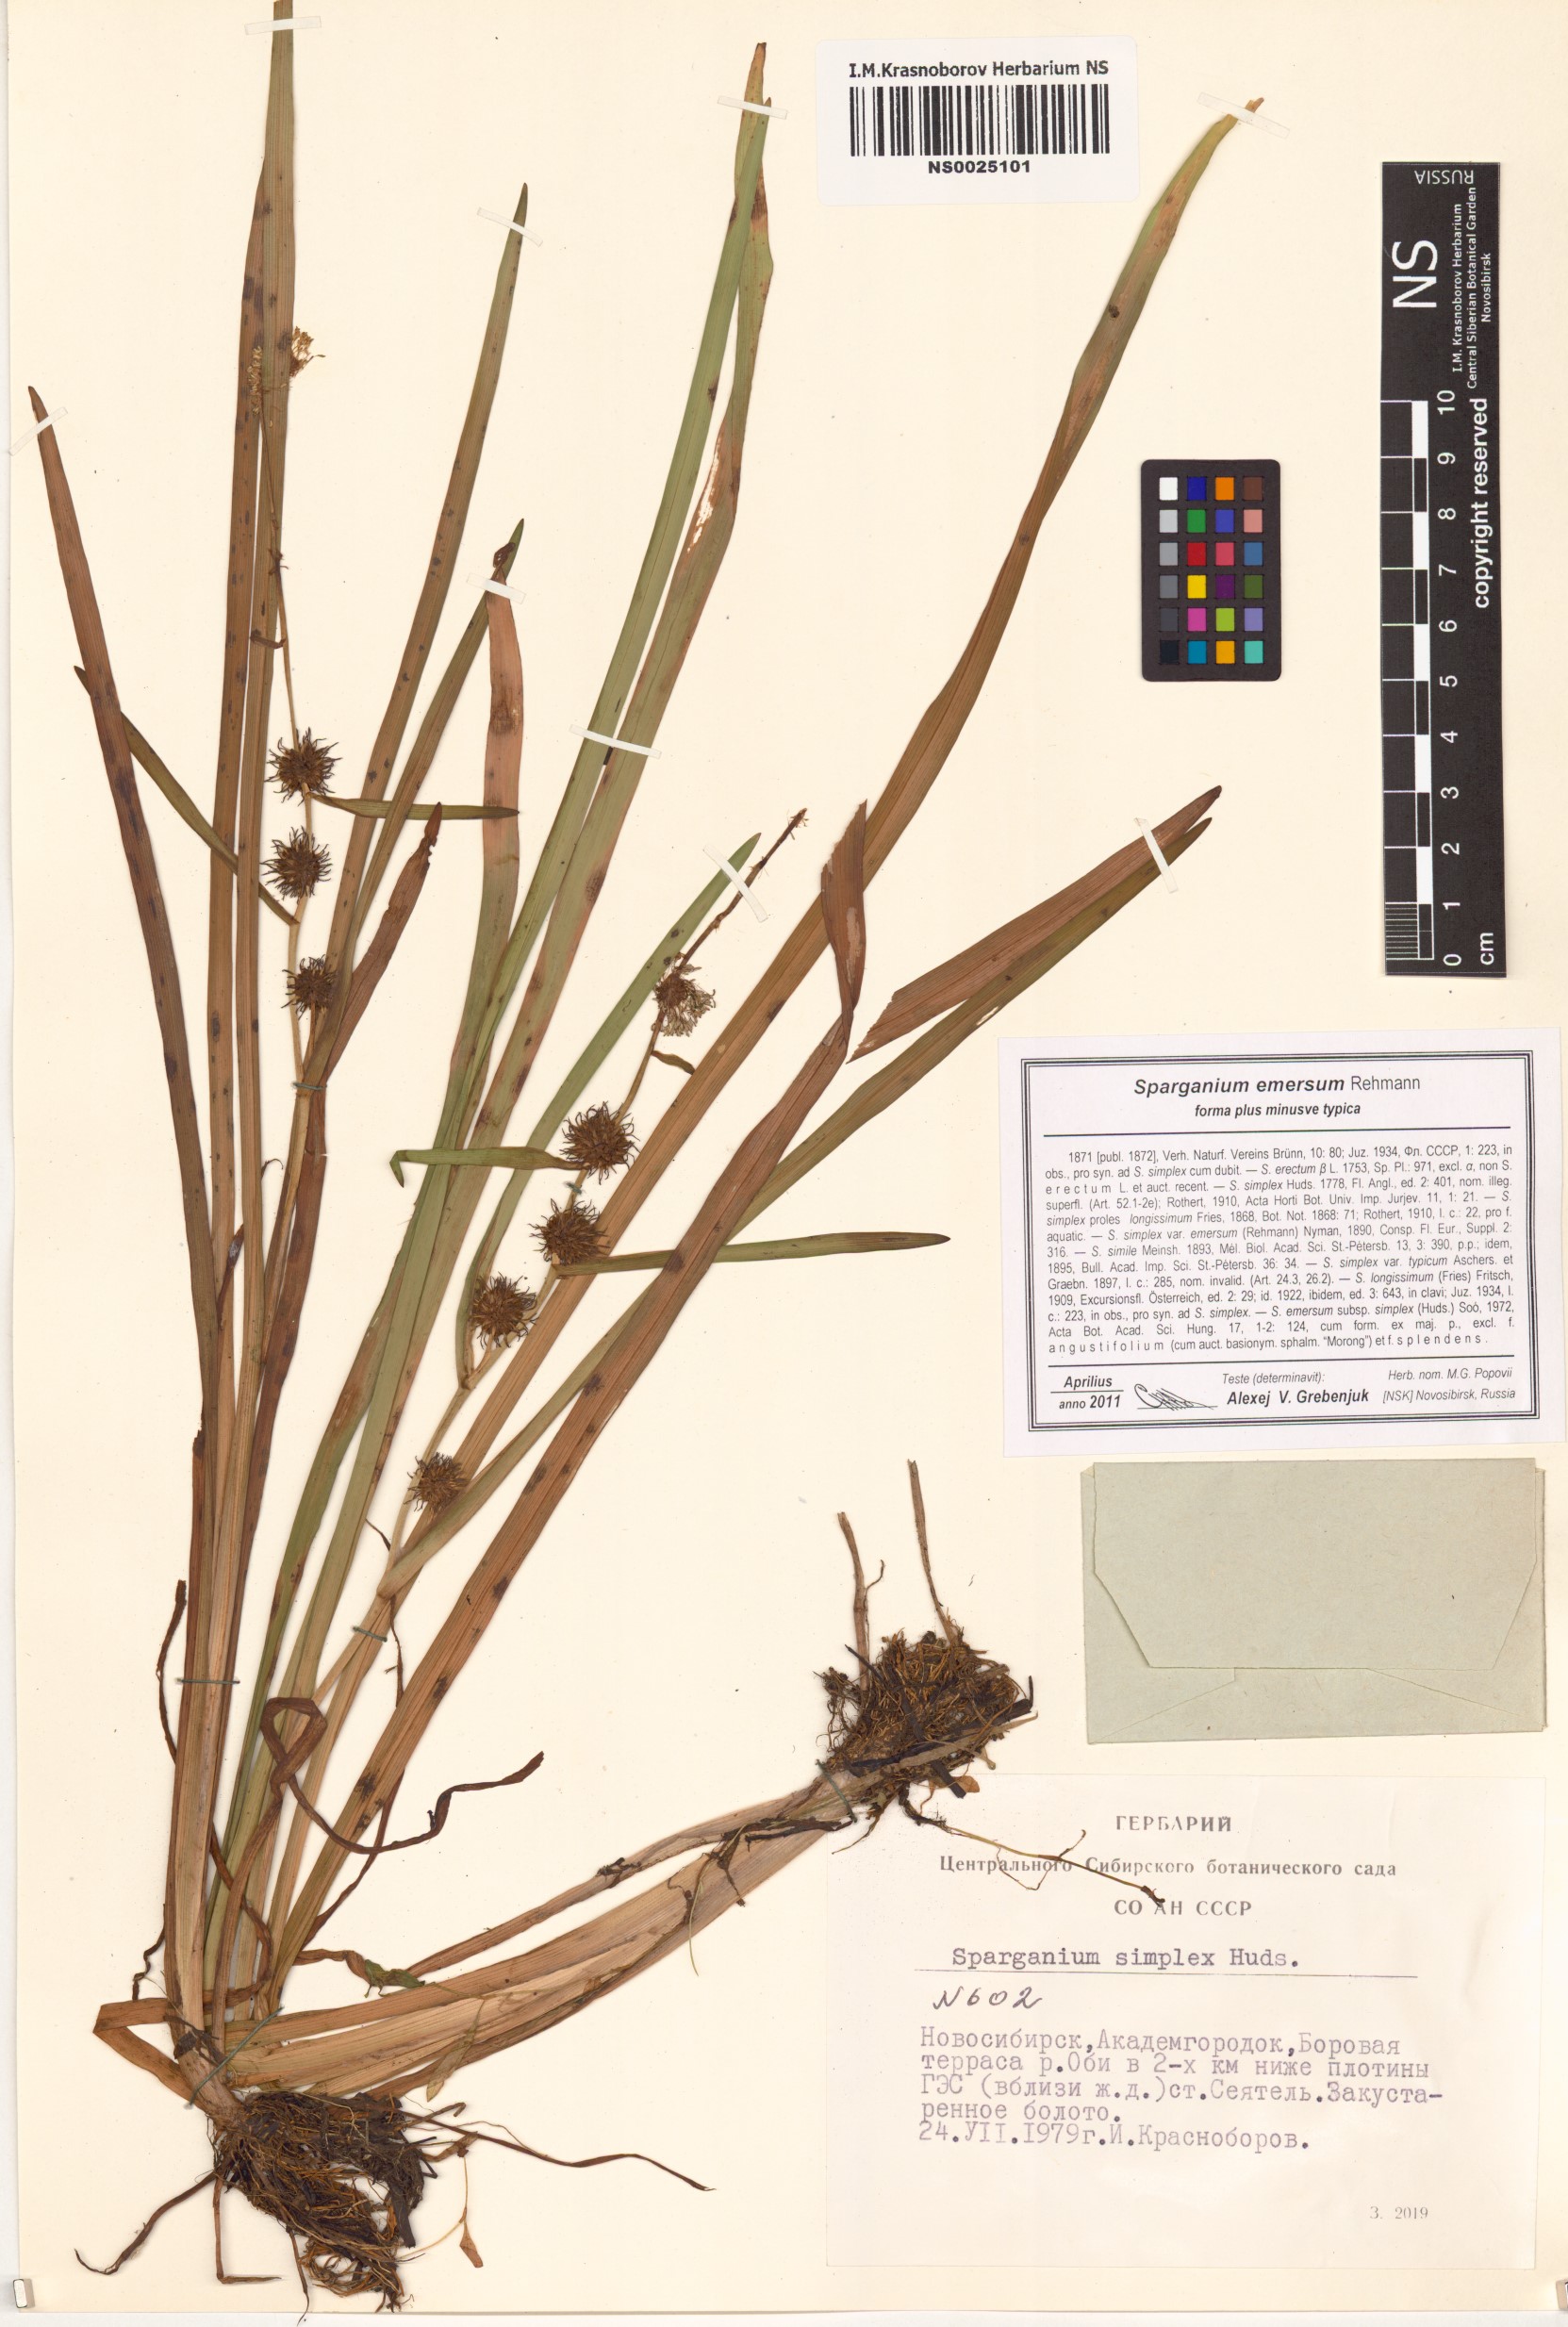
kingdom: Plantae
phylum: Tracheophyta
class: Liliopsida
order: Poales
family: Typhaceae
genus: Sparganium
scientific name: Sparganium emersum
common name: Unbranched bur-reed
